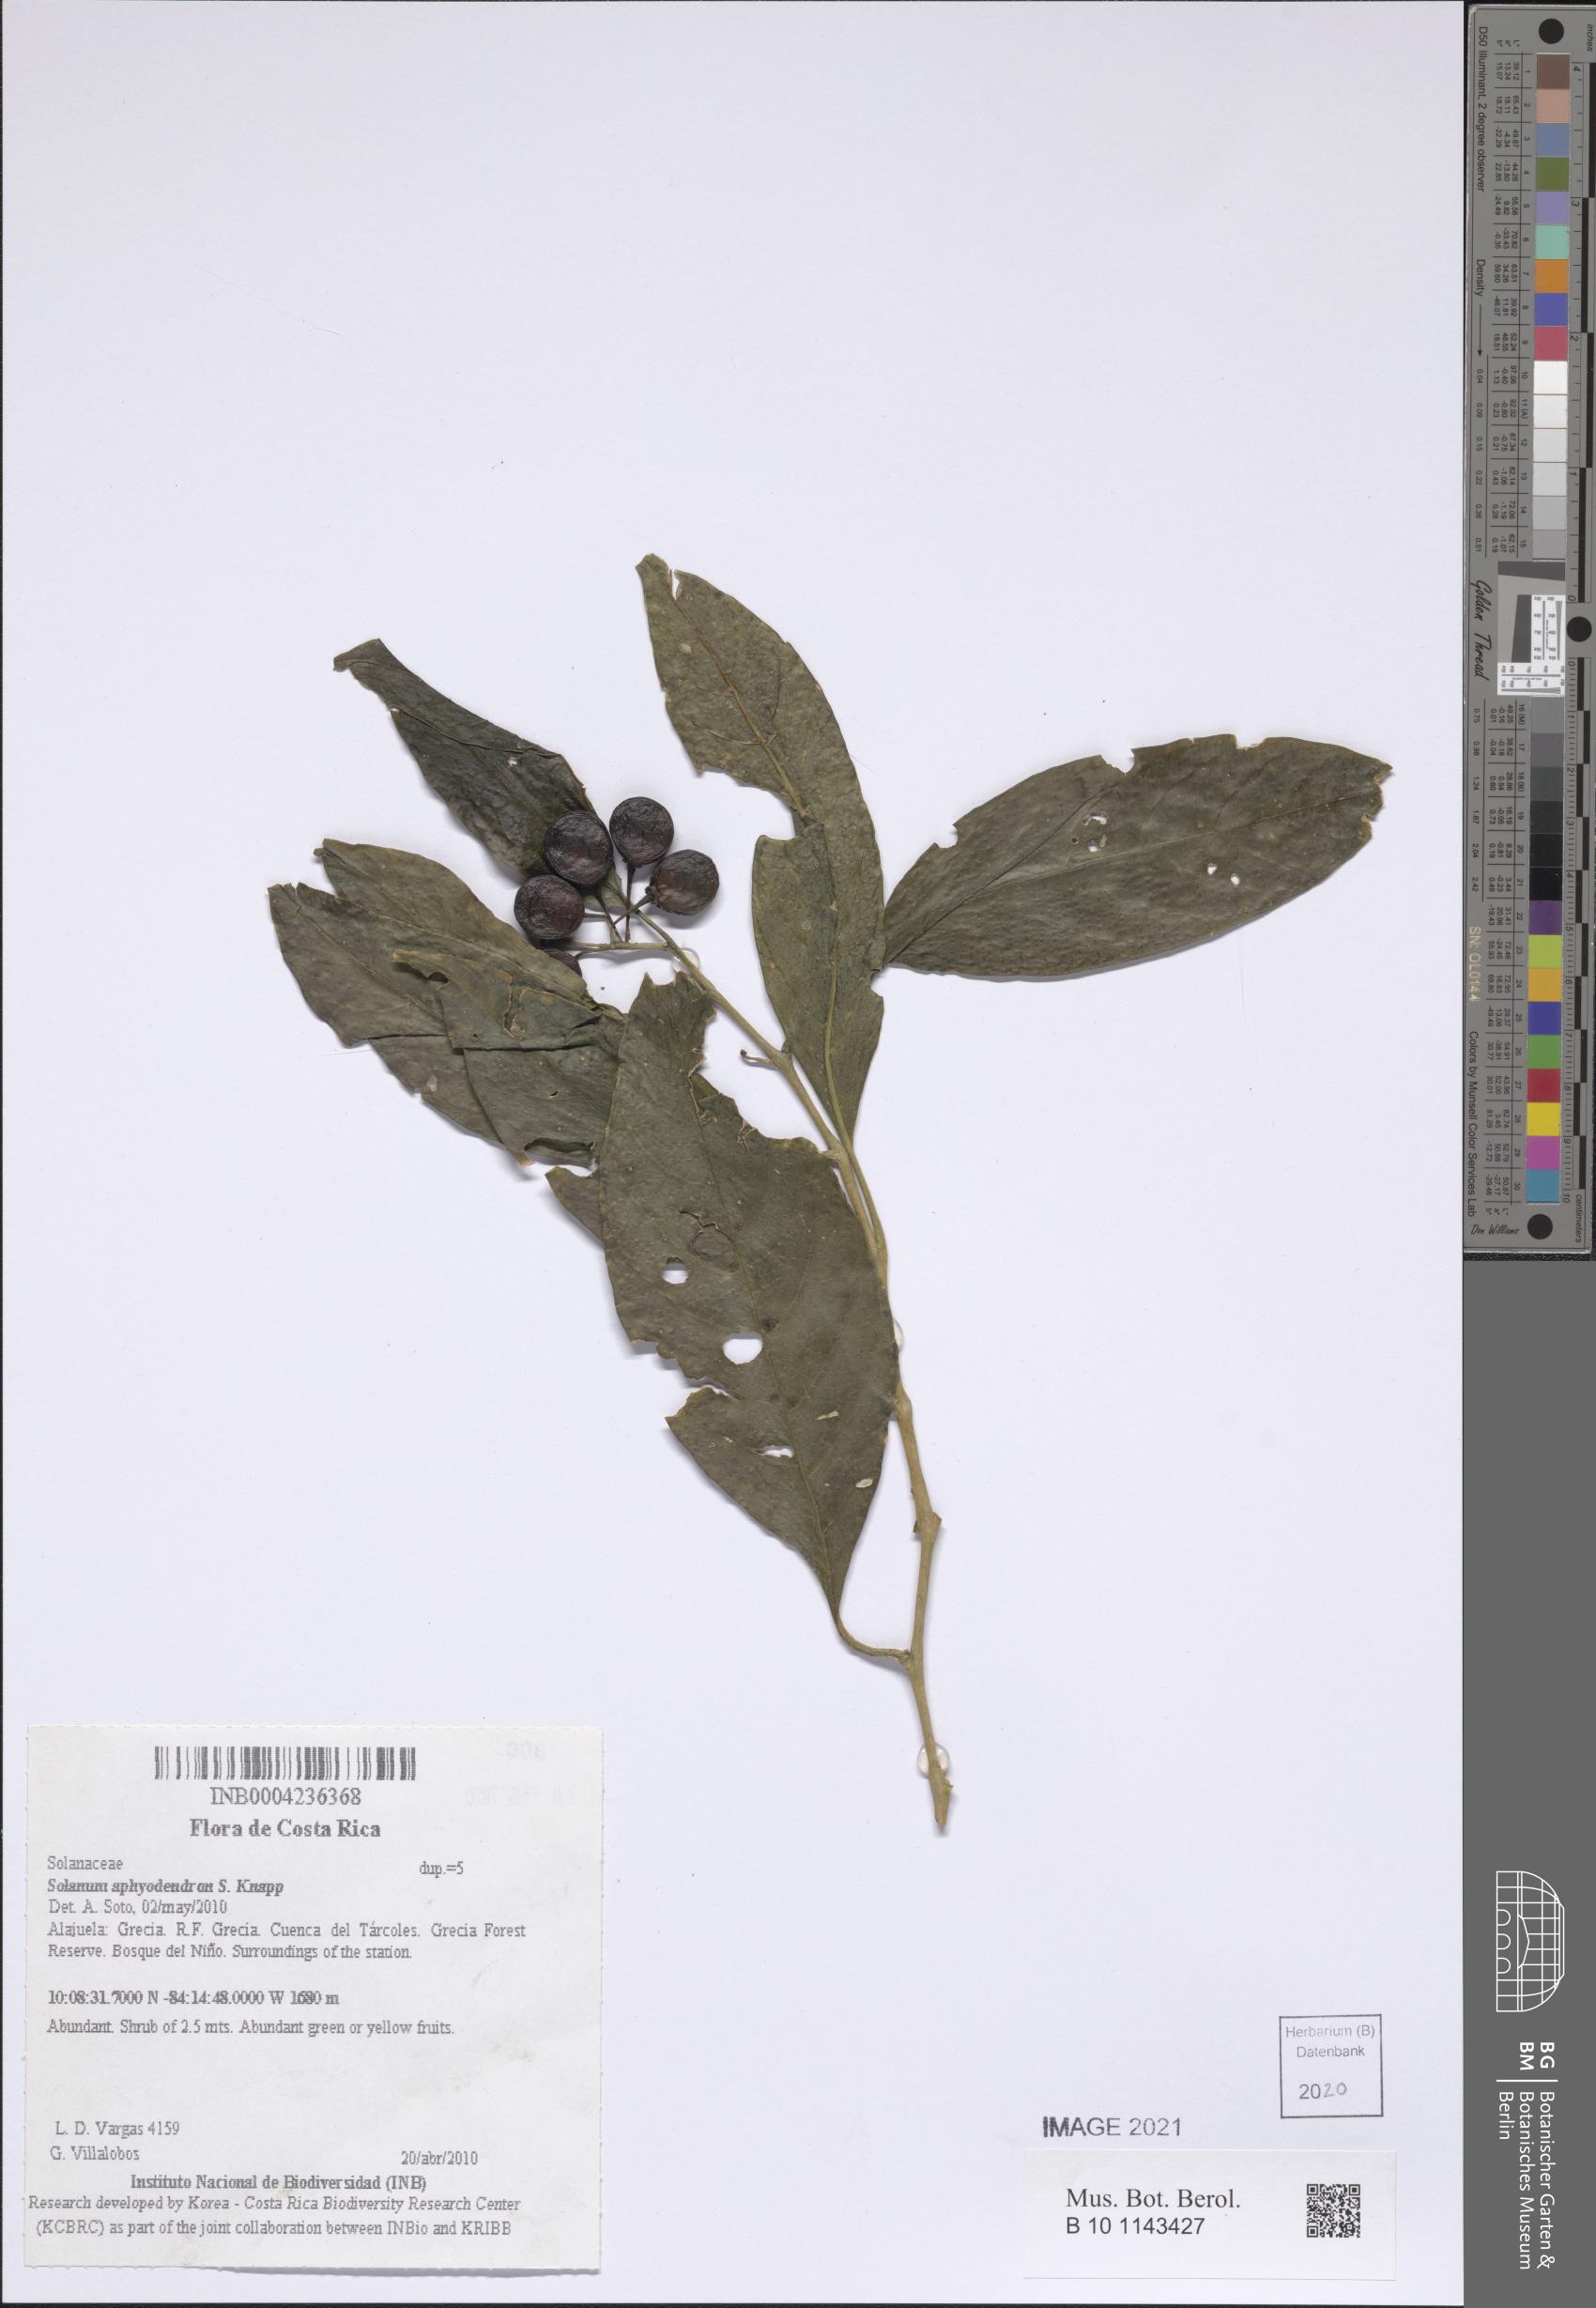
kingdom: Plantae
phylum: Tracheophyta
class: Magnoliopsida
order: Solanales
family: Solanaceae
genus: Solanum
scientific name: Solanum aphyodendron
